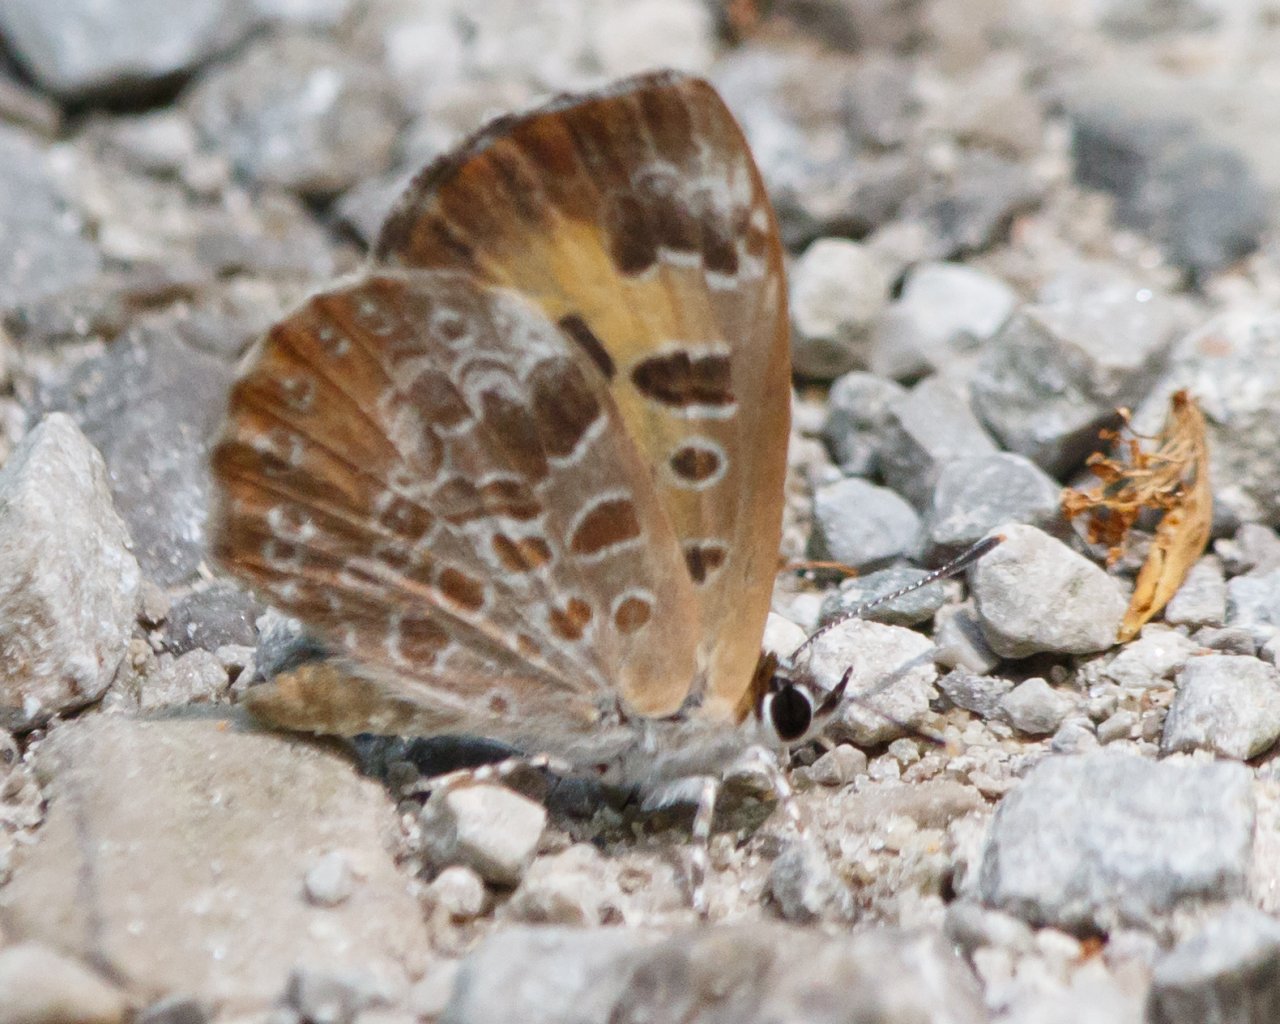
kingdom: Animalia
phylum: Arthropoda
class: Insecta
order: Lepidoptera
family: Lycaenidae
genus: Feniseca
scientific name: Feniseca tarquinius
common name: Harvester
